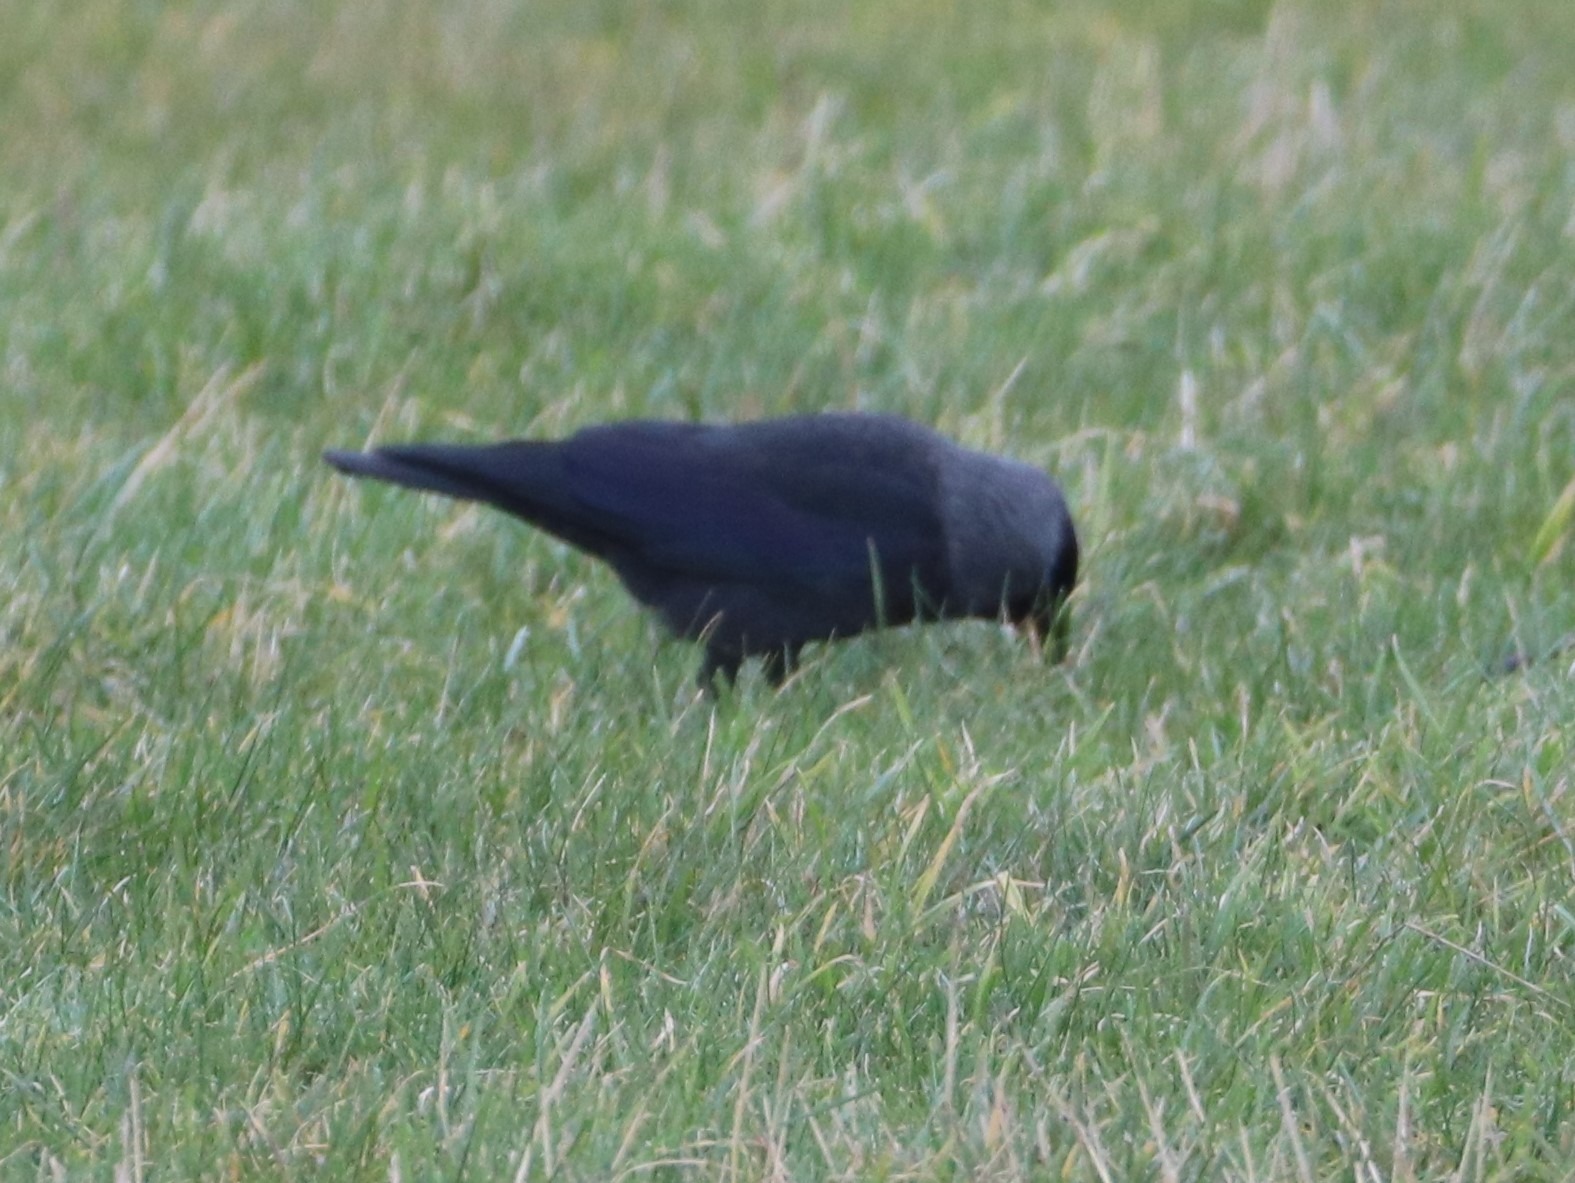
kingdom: Animalia
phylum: Chordata
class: Aves
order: Passeriformes
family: Corvidae
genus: Coloeus
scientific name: Coloeus monedula
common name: Allike
